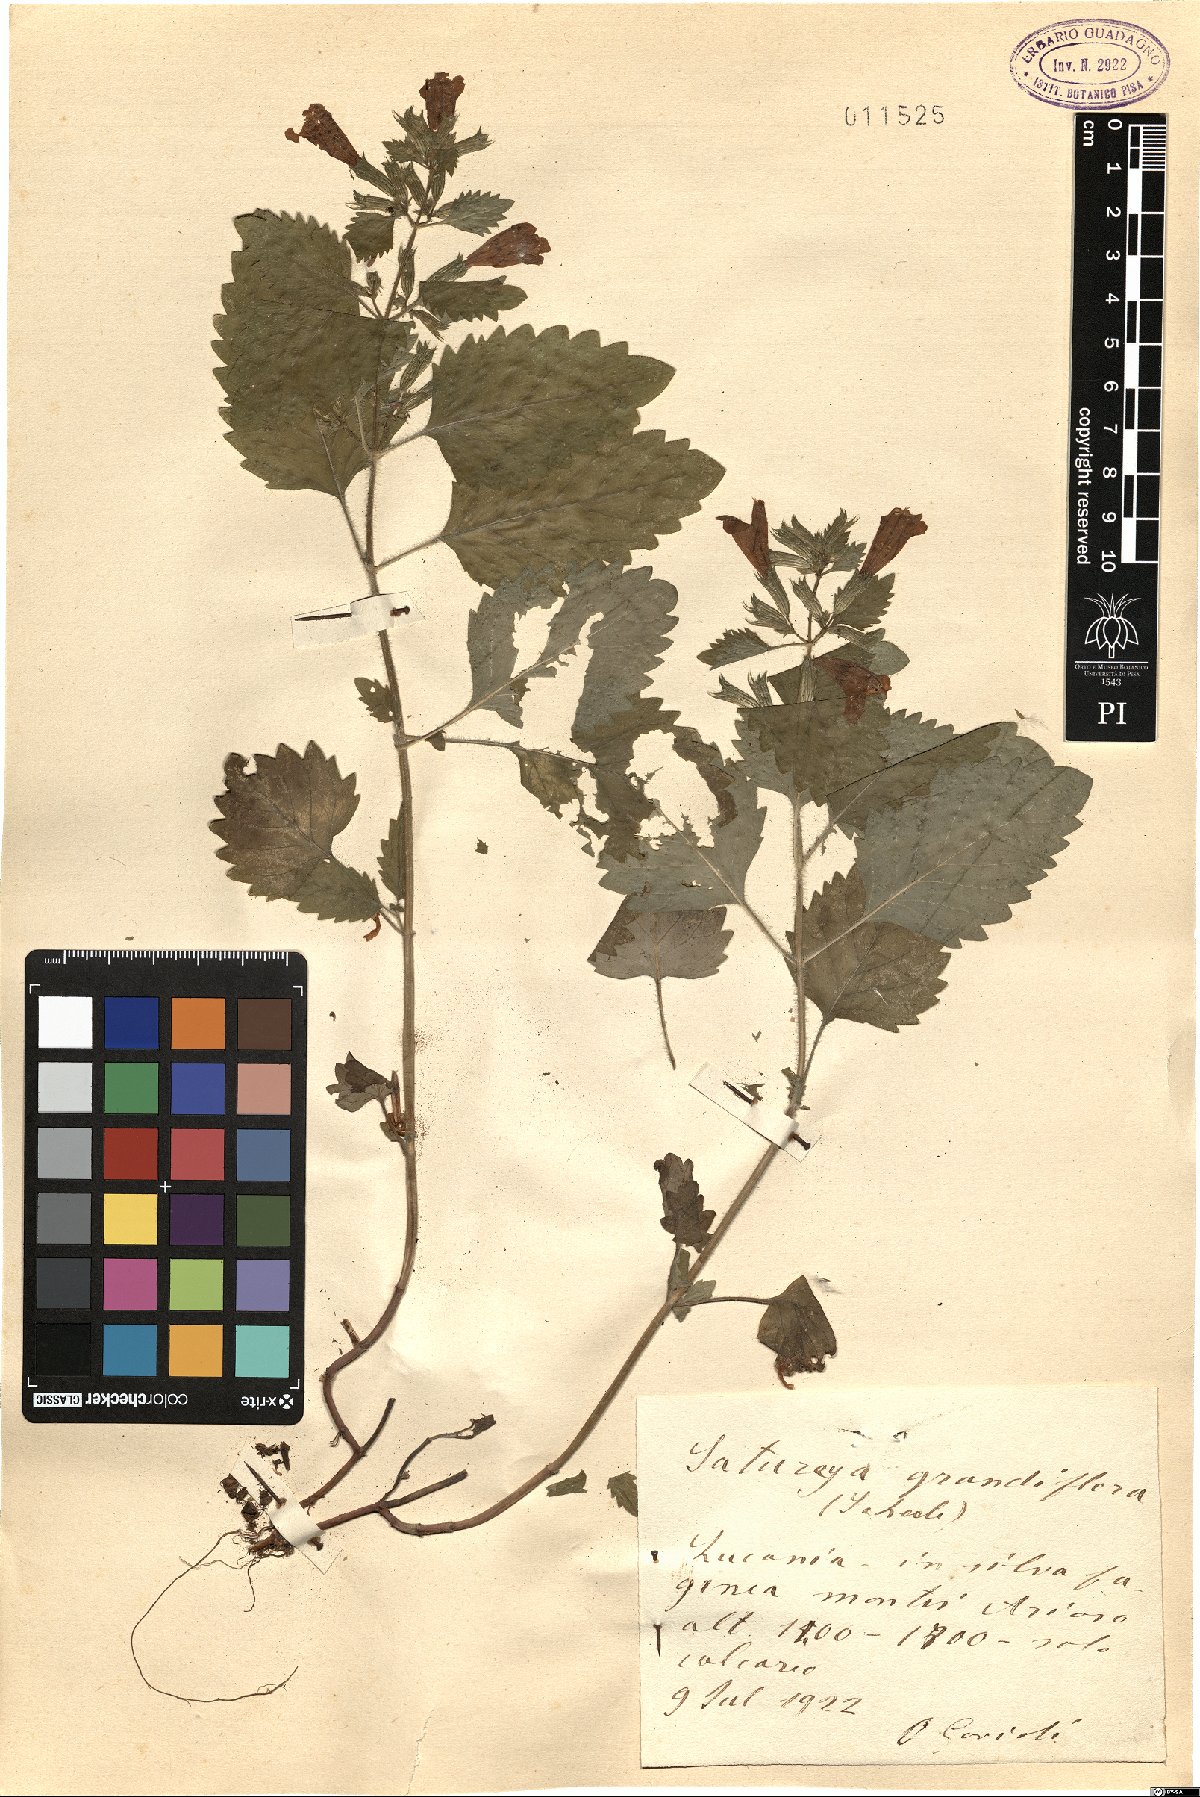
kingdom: Plantae
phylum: Tracheophyta
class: Magnoliopsida
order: Lamiales
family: Lamiaceae
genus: Clinopodium
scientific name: Clinopodium grandiflorum
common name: Greater calamint
